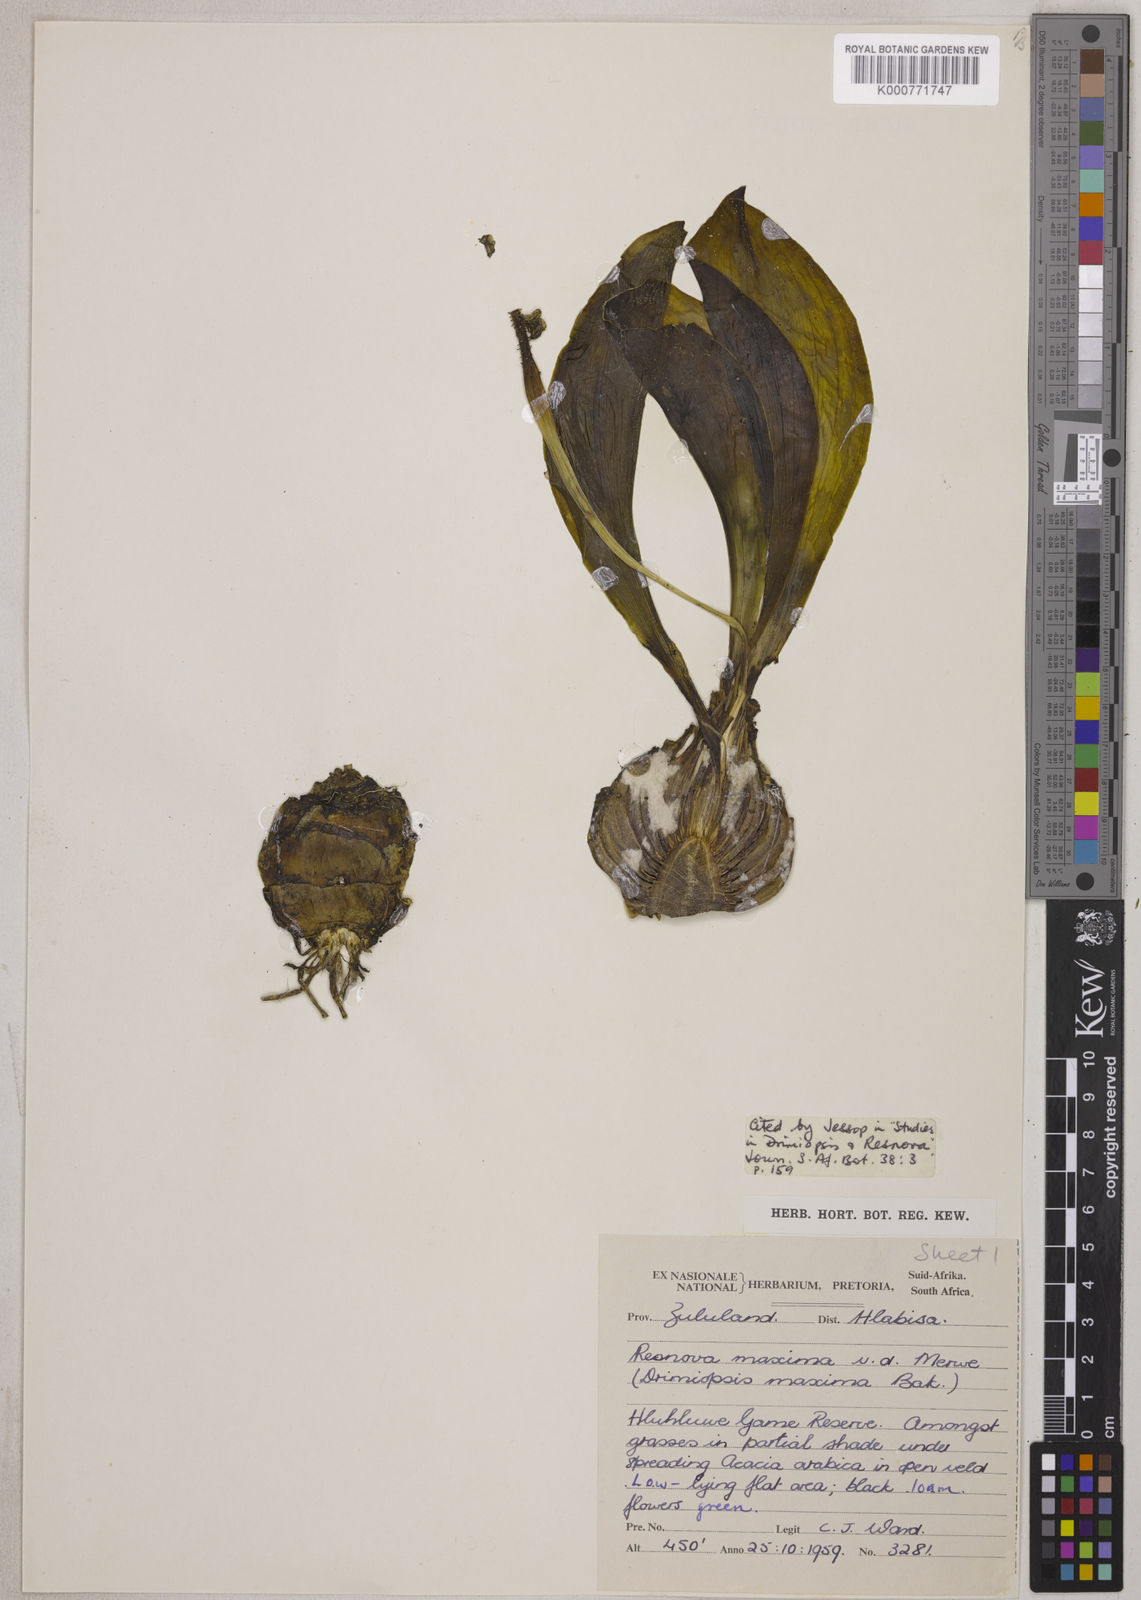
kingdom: Plantae
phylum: Tracheophyta
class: Liliopsida
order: Asparagales
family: Asparagaceae
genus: Resnova
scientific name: Resnova humifusa
